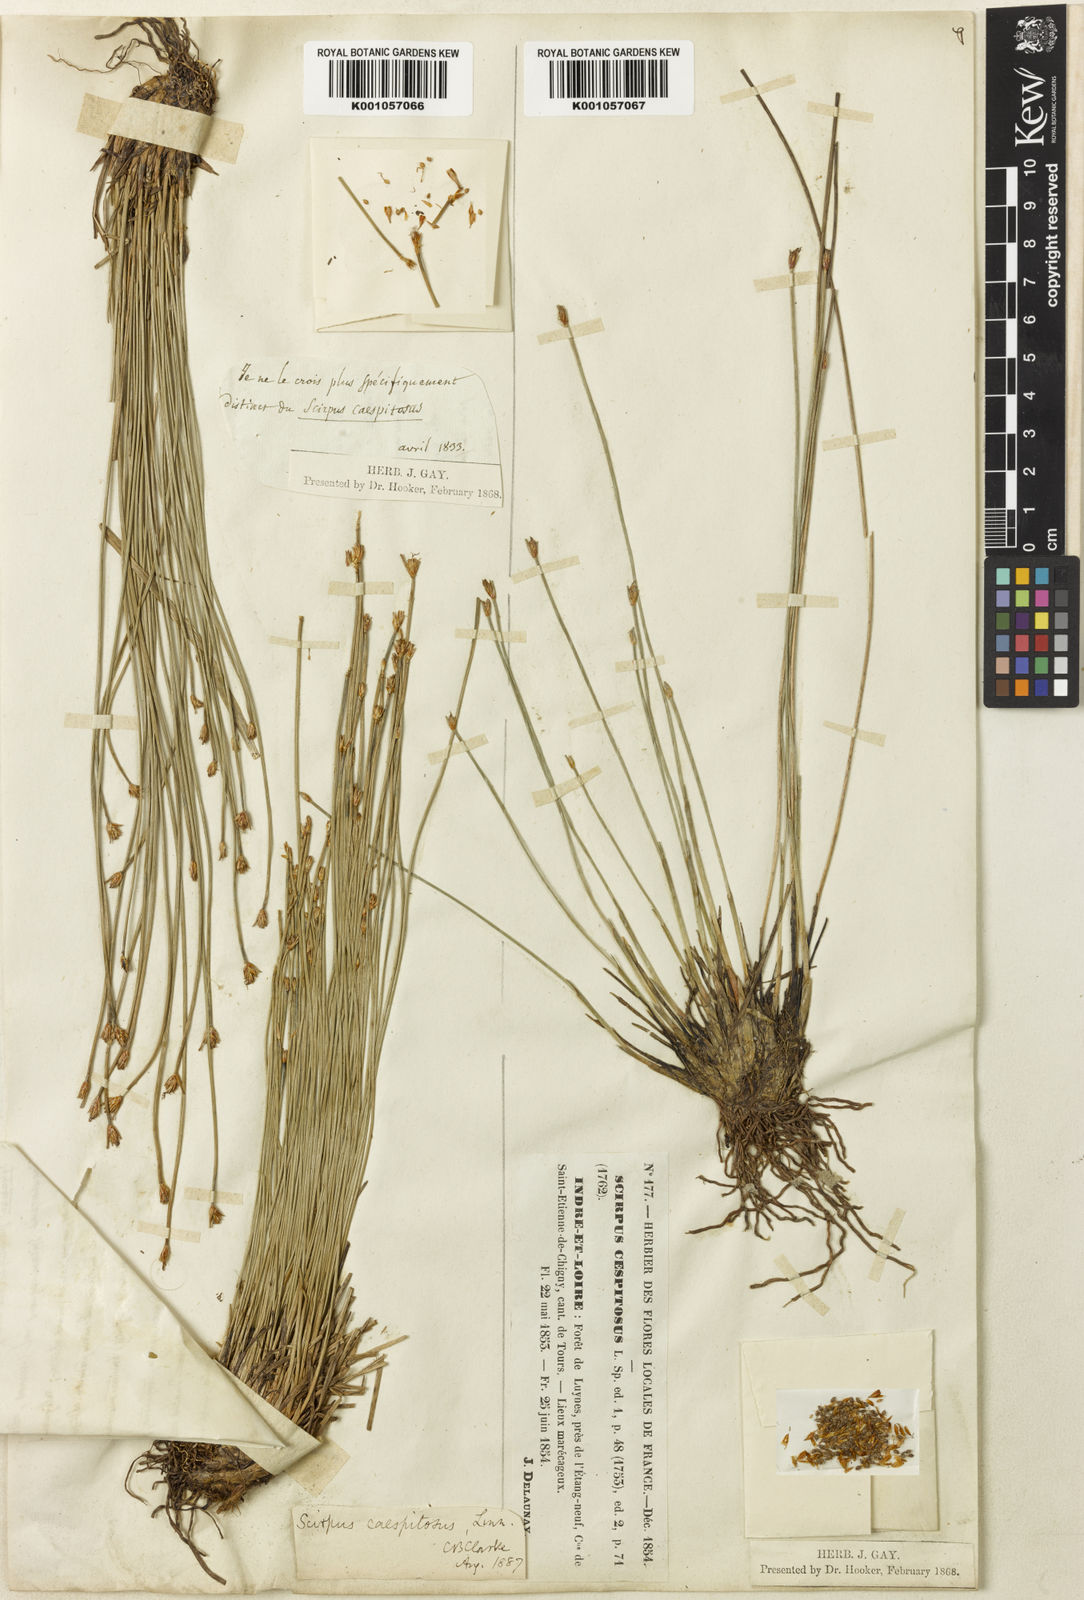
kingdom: Plantae
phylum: Tracheophyta
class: Liliopsida
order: Poales
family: Cyperaceae
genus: Trichophorum
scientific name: Trichophorum cespitosum
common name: Cespitose bulrush
